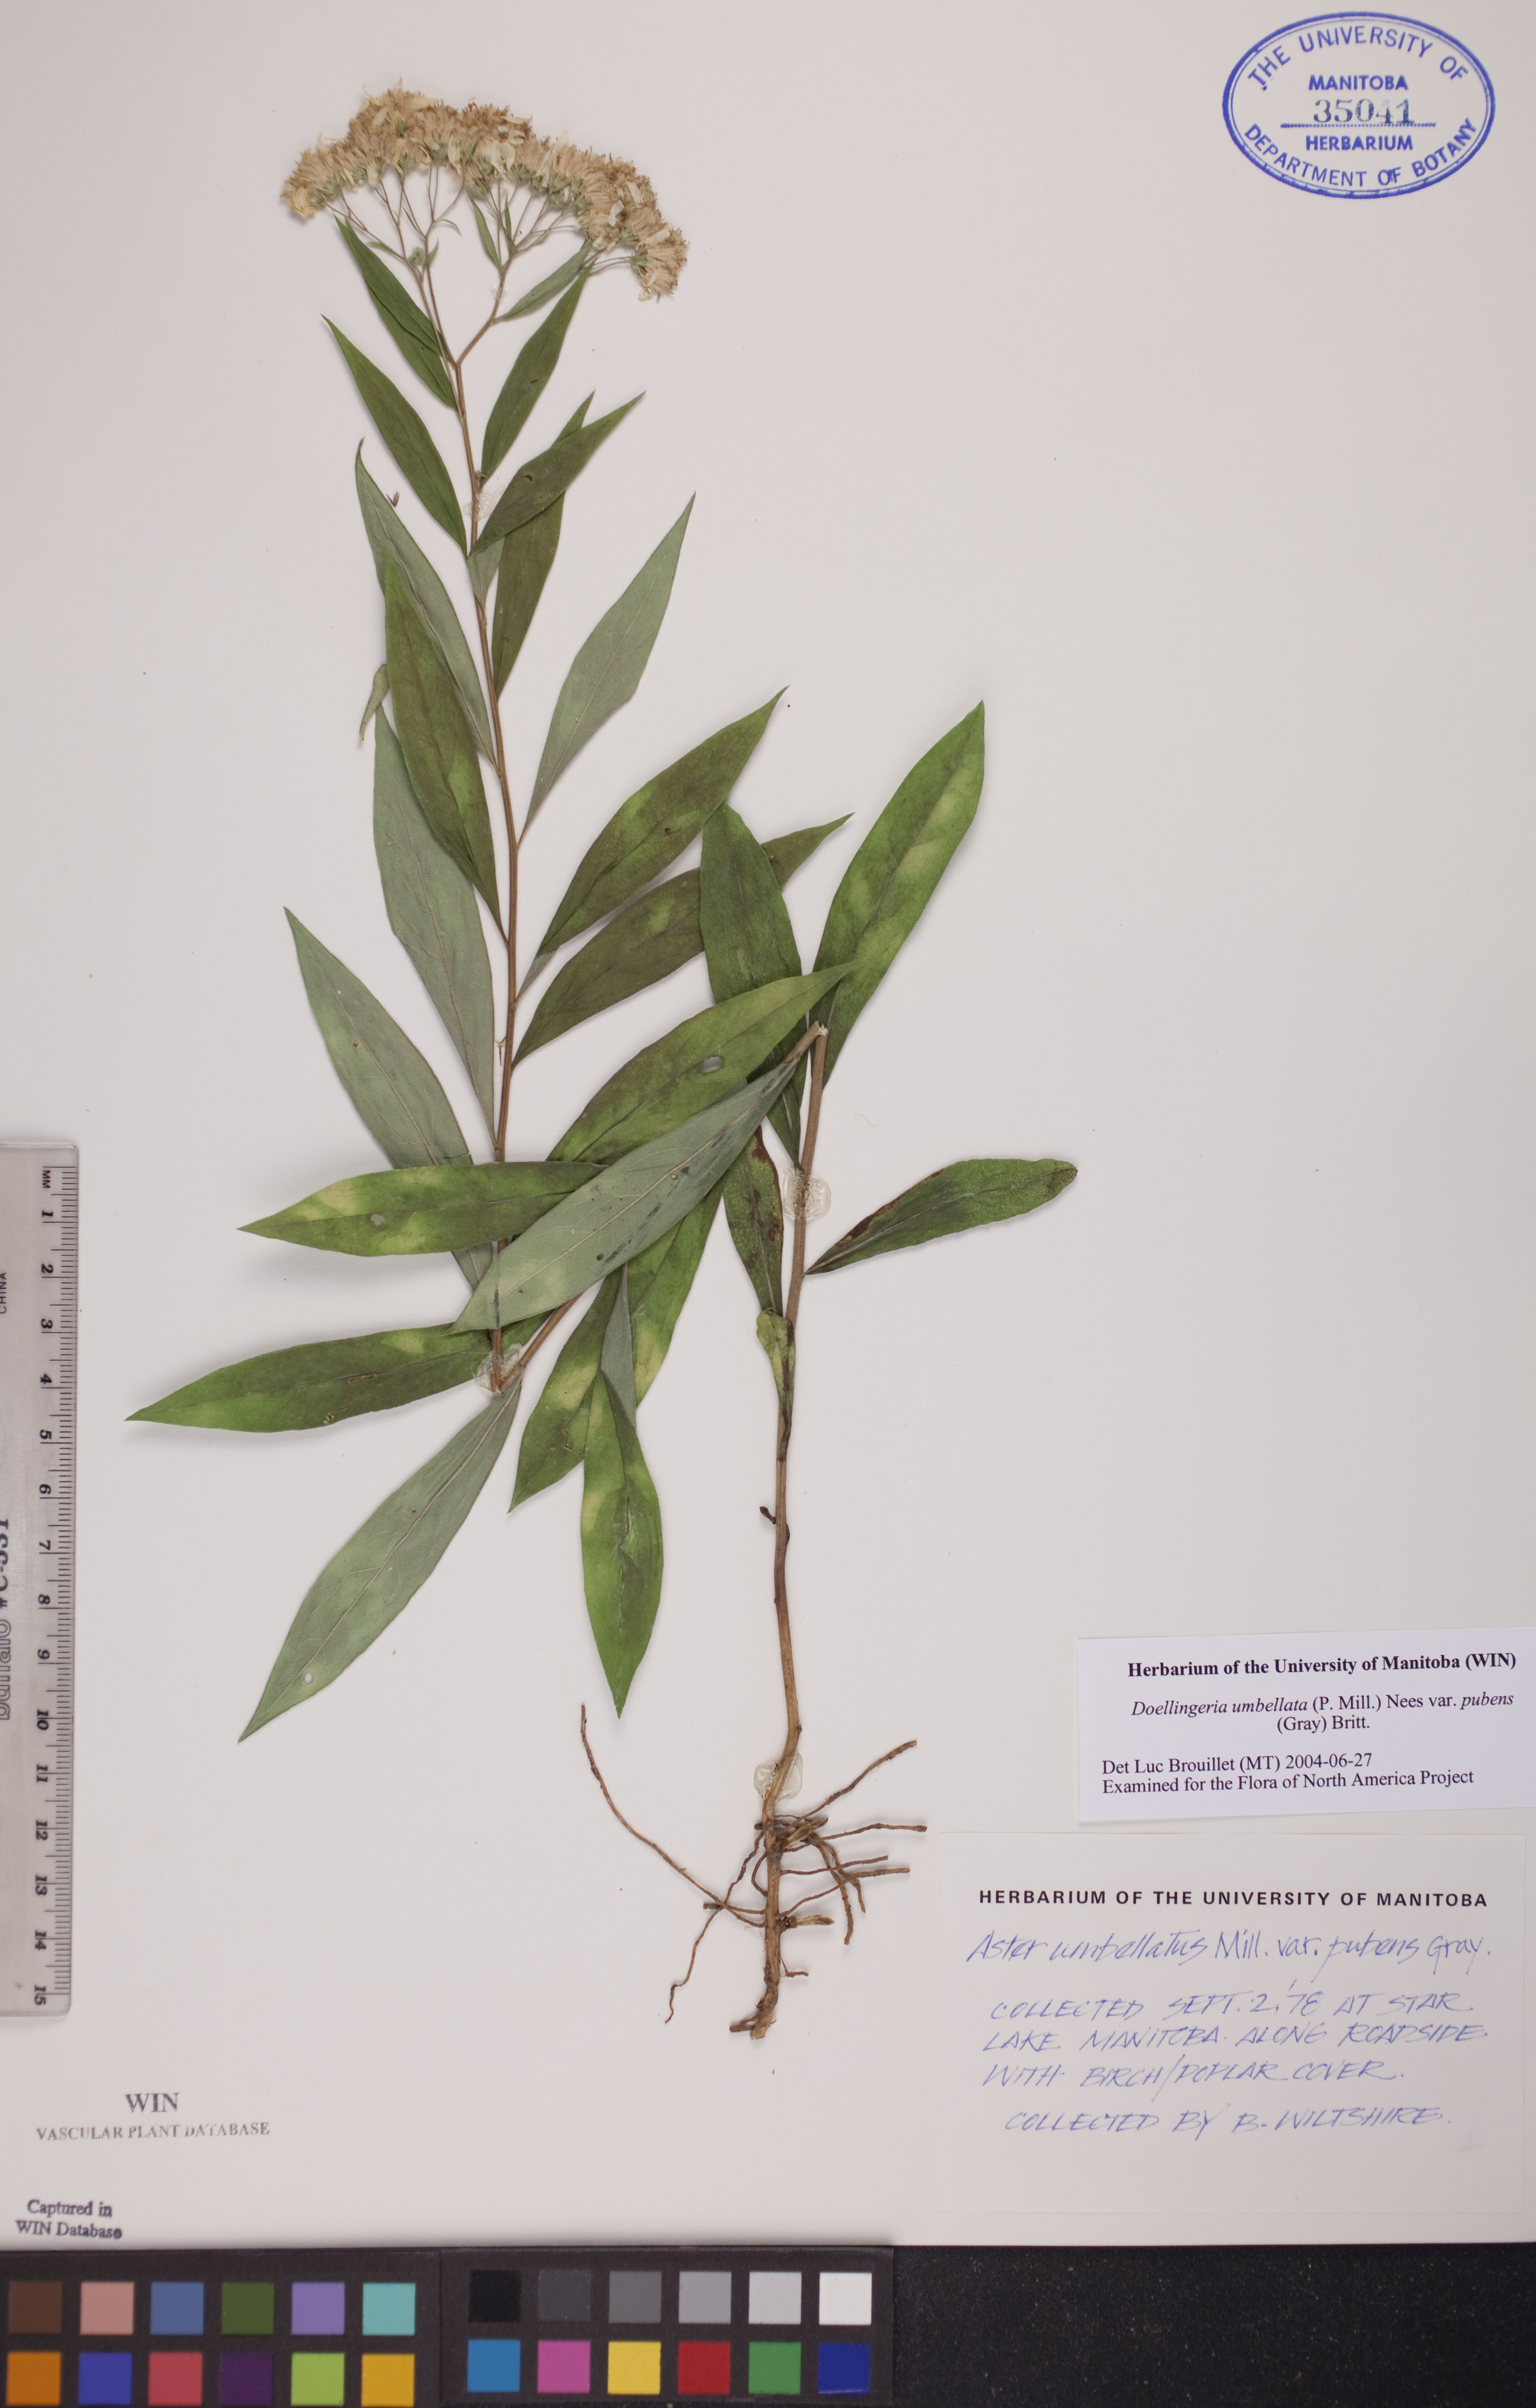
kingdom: Plantae
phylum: Tracheophyta
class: Magnoliopsida
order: Asterales
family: Asteraceae
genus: Doellingeria
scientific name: Doellingeria umbellata
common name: Flat-top white aster
